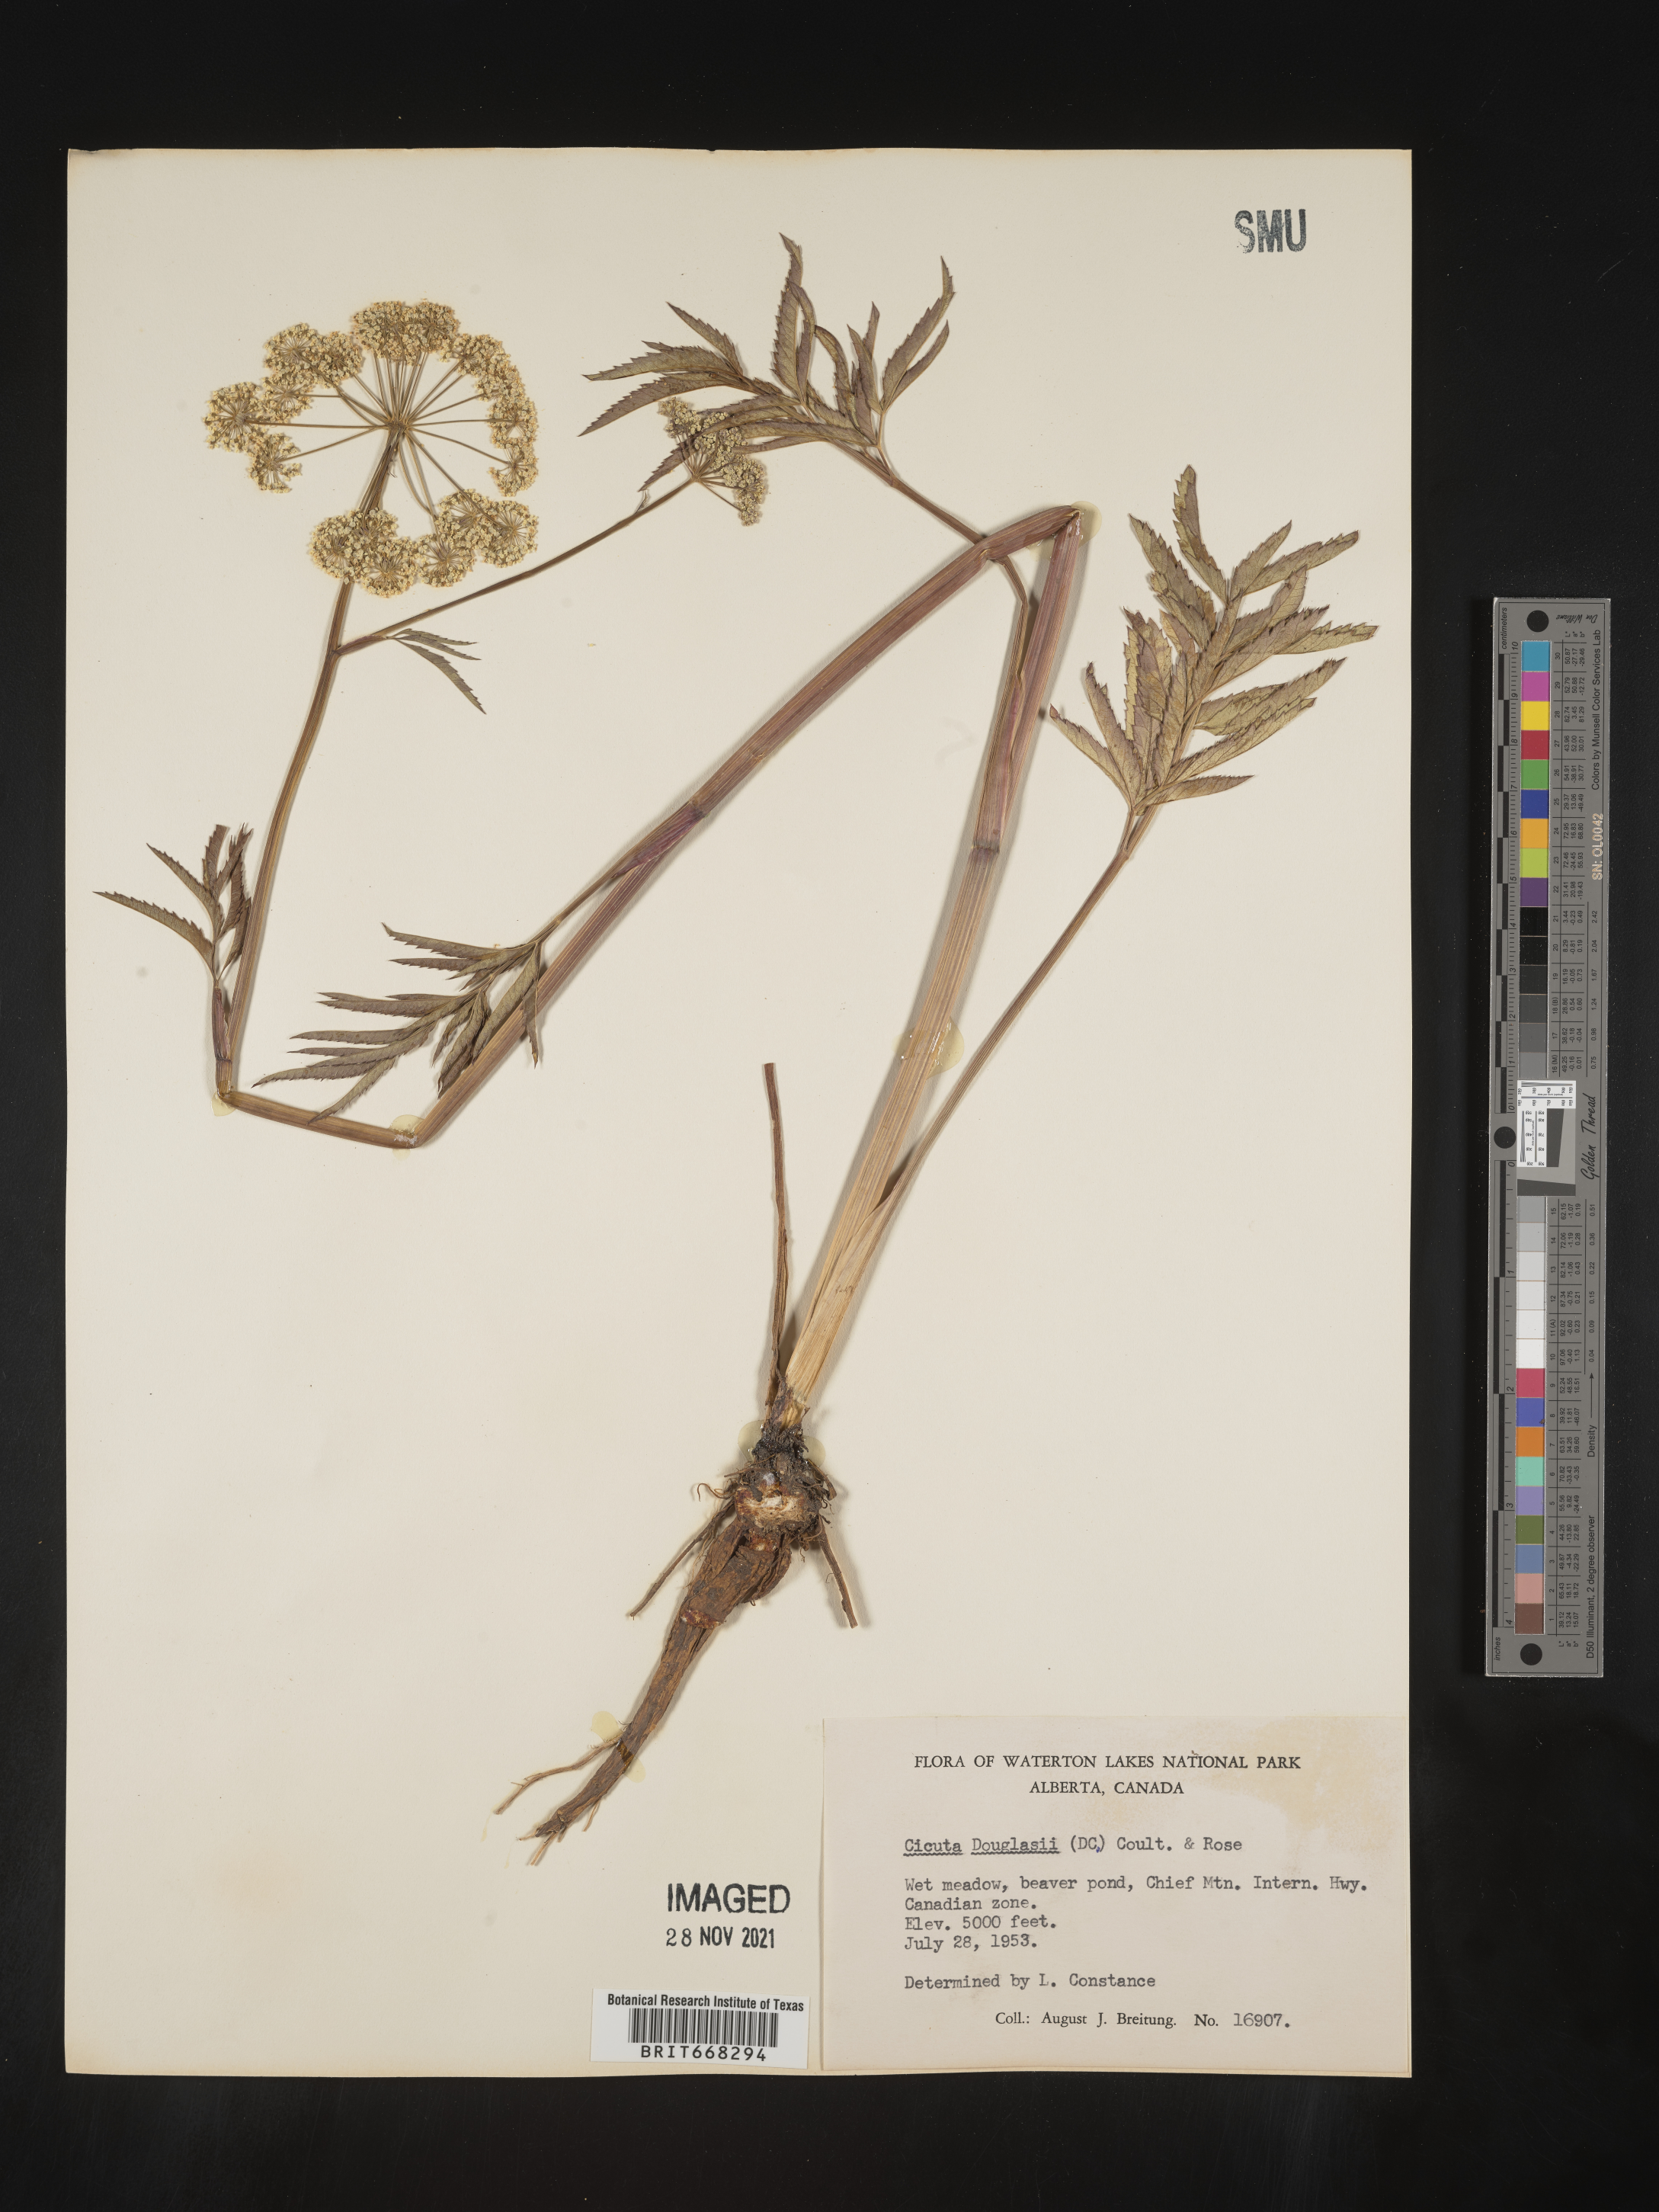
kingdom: Plantae
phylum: Tracheophyta
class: Magnoliopsida
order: Apiales
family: Apiaceae
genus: Cicuta
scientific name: Cicuta
